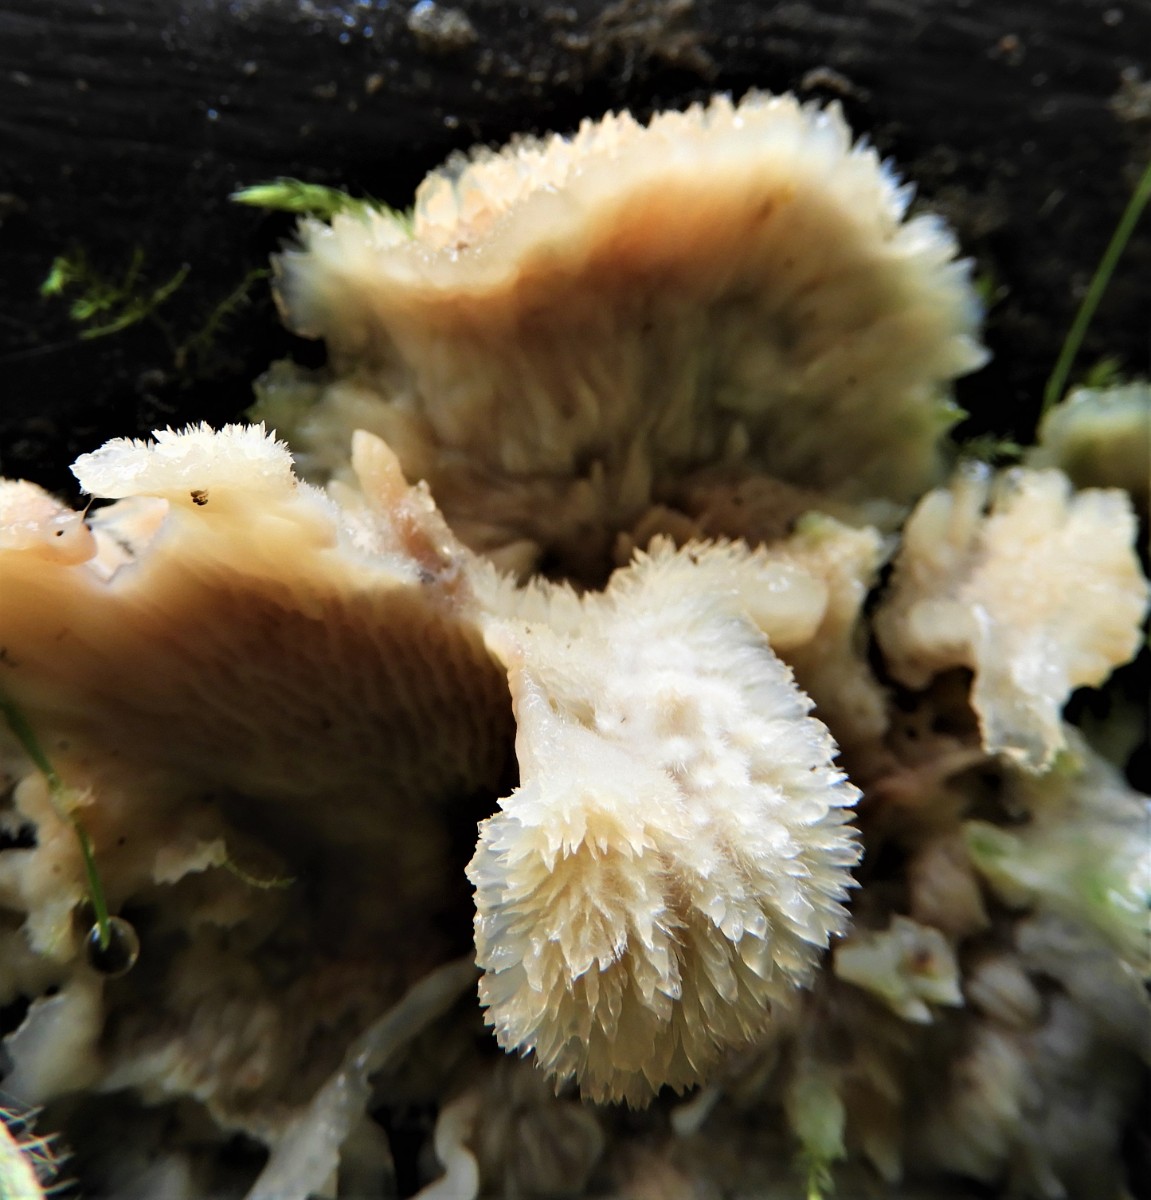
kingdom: Fungi
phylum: Basidiomycota
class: Agaricomycetes
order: Polyporales
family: Meruliaceae
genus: Phlebia
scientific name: Phlebia tremellosa
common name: bævrende åresvamp
